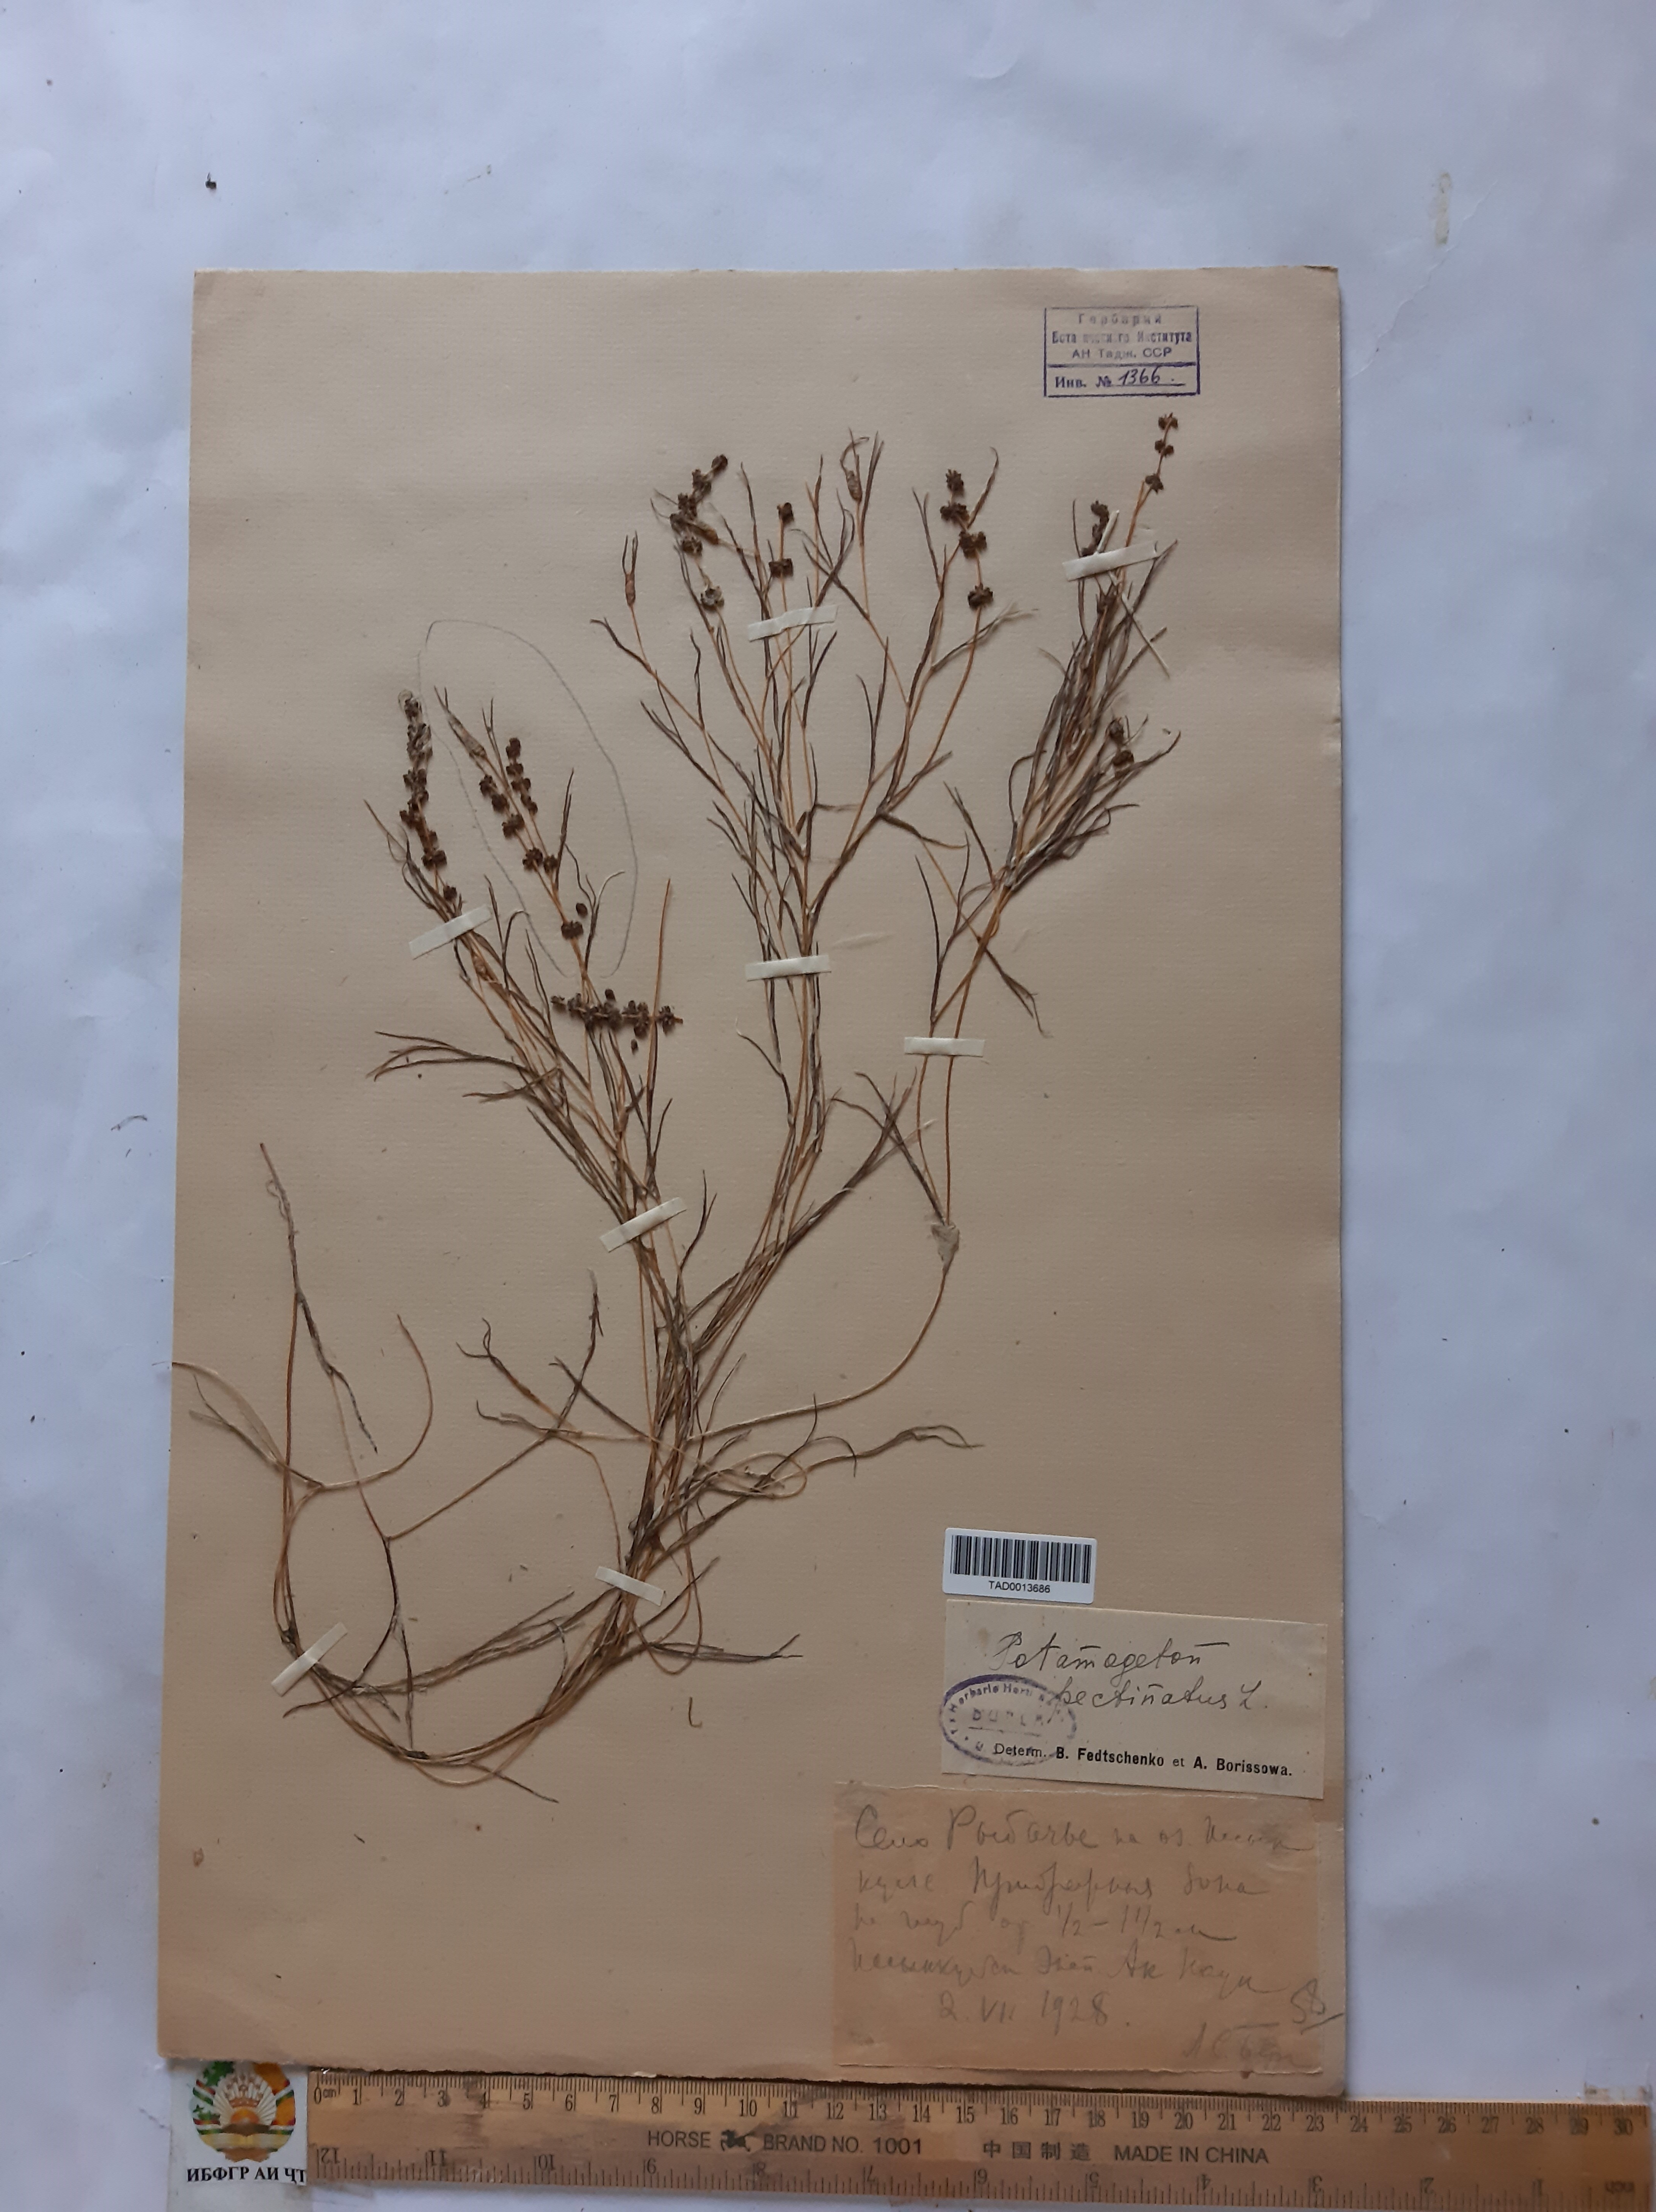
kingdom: Plantae
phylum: Tracheophyta
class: Liliopsida
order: Alismatales
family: Potamogetonaceae
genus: Potamogeton
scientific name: Potamogeton pusillus
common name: Lesser pondweed
